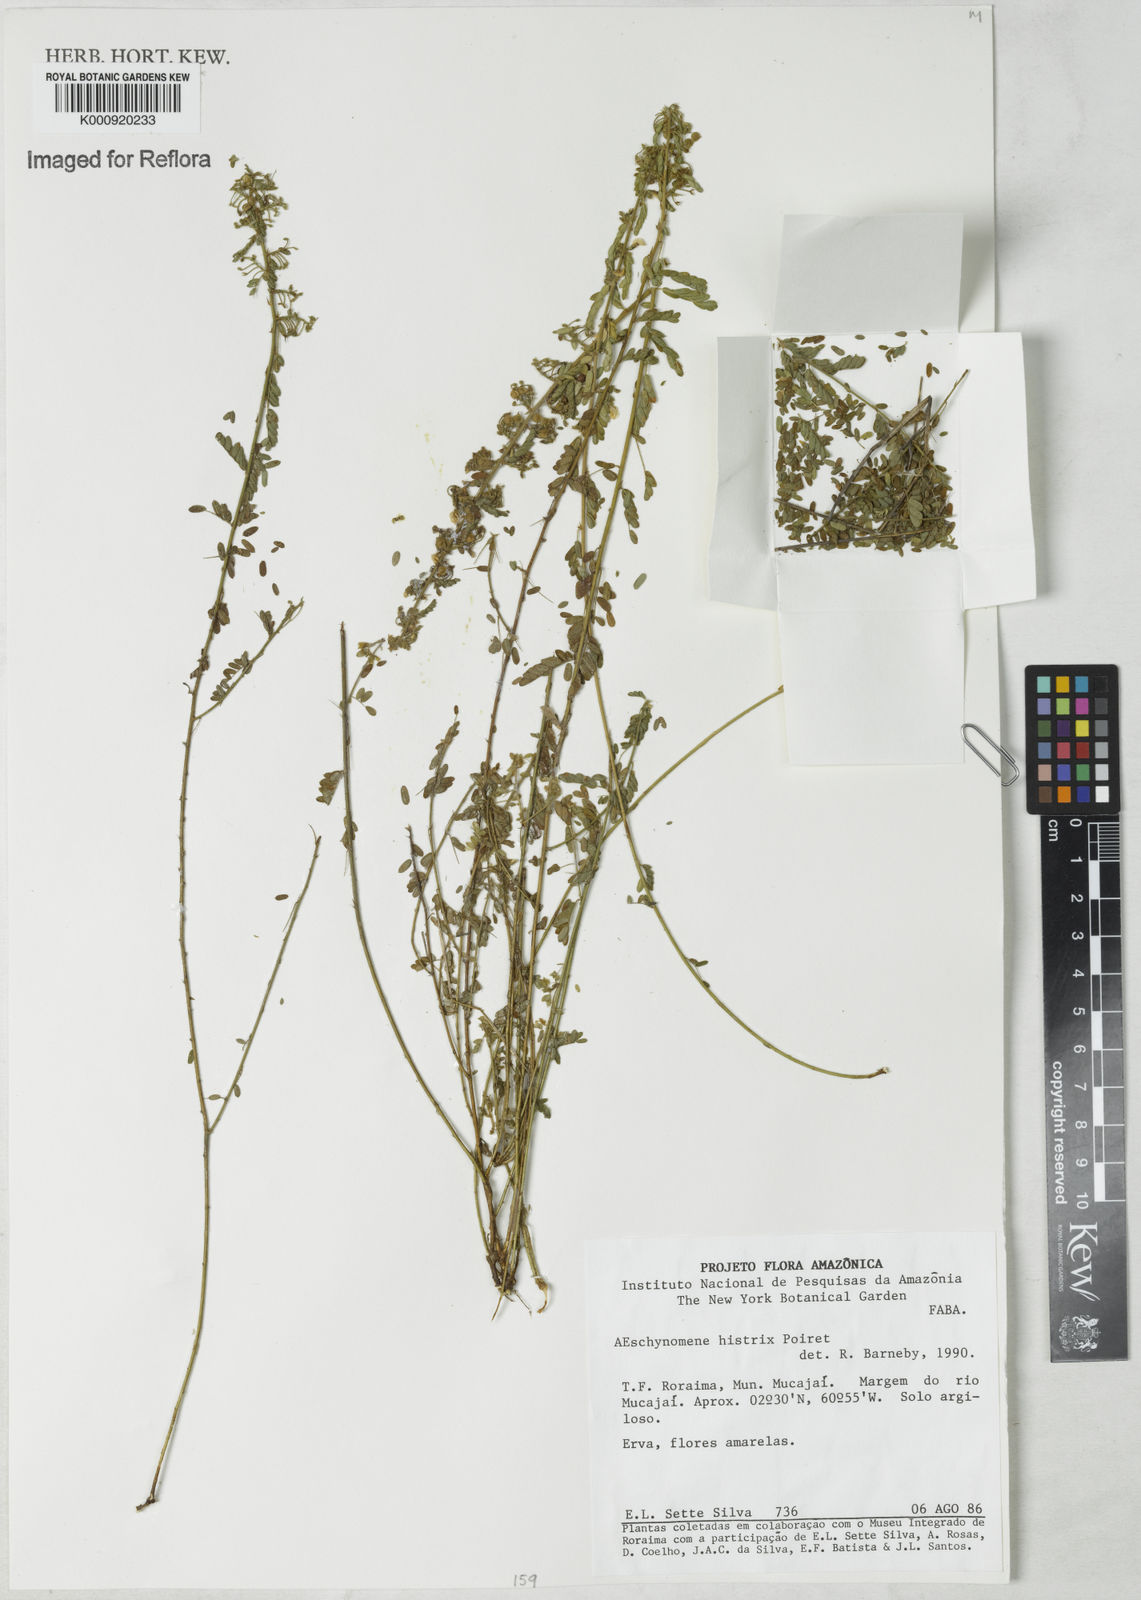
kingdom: Plantae
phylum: Tracheophyta
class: Magnoliopsida
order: Fabales
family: Fabaceae
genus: Ctenodon
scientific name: Ctenodon histrix
